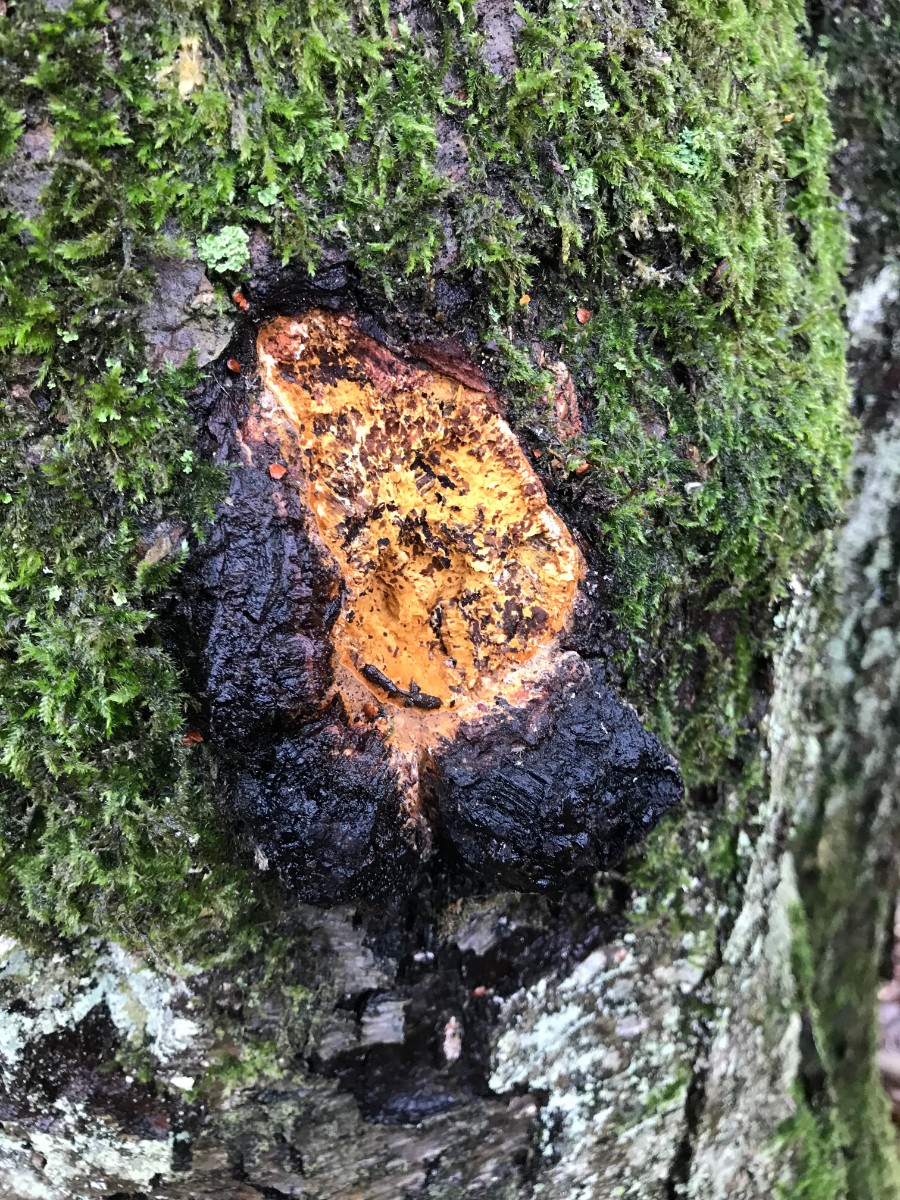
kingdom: Fungi
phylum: Basidiomycota
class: Agaricomycetes
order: Hymenochaetales
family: Hymenochaetaceae
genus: Inonotus
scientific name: Inonotus obliquus
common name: birke-spejlporesvamp
